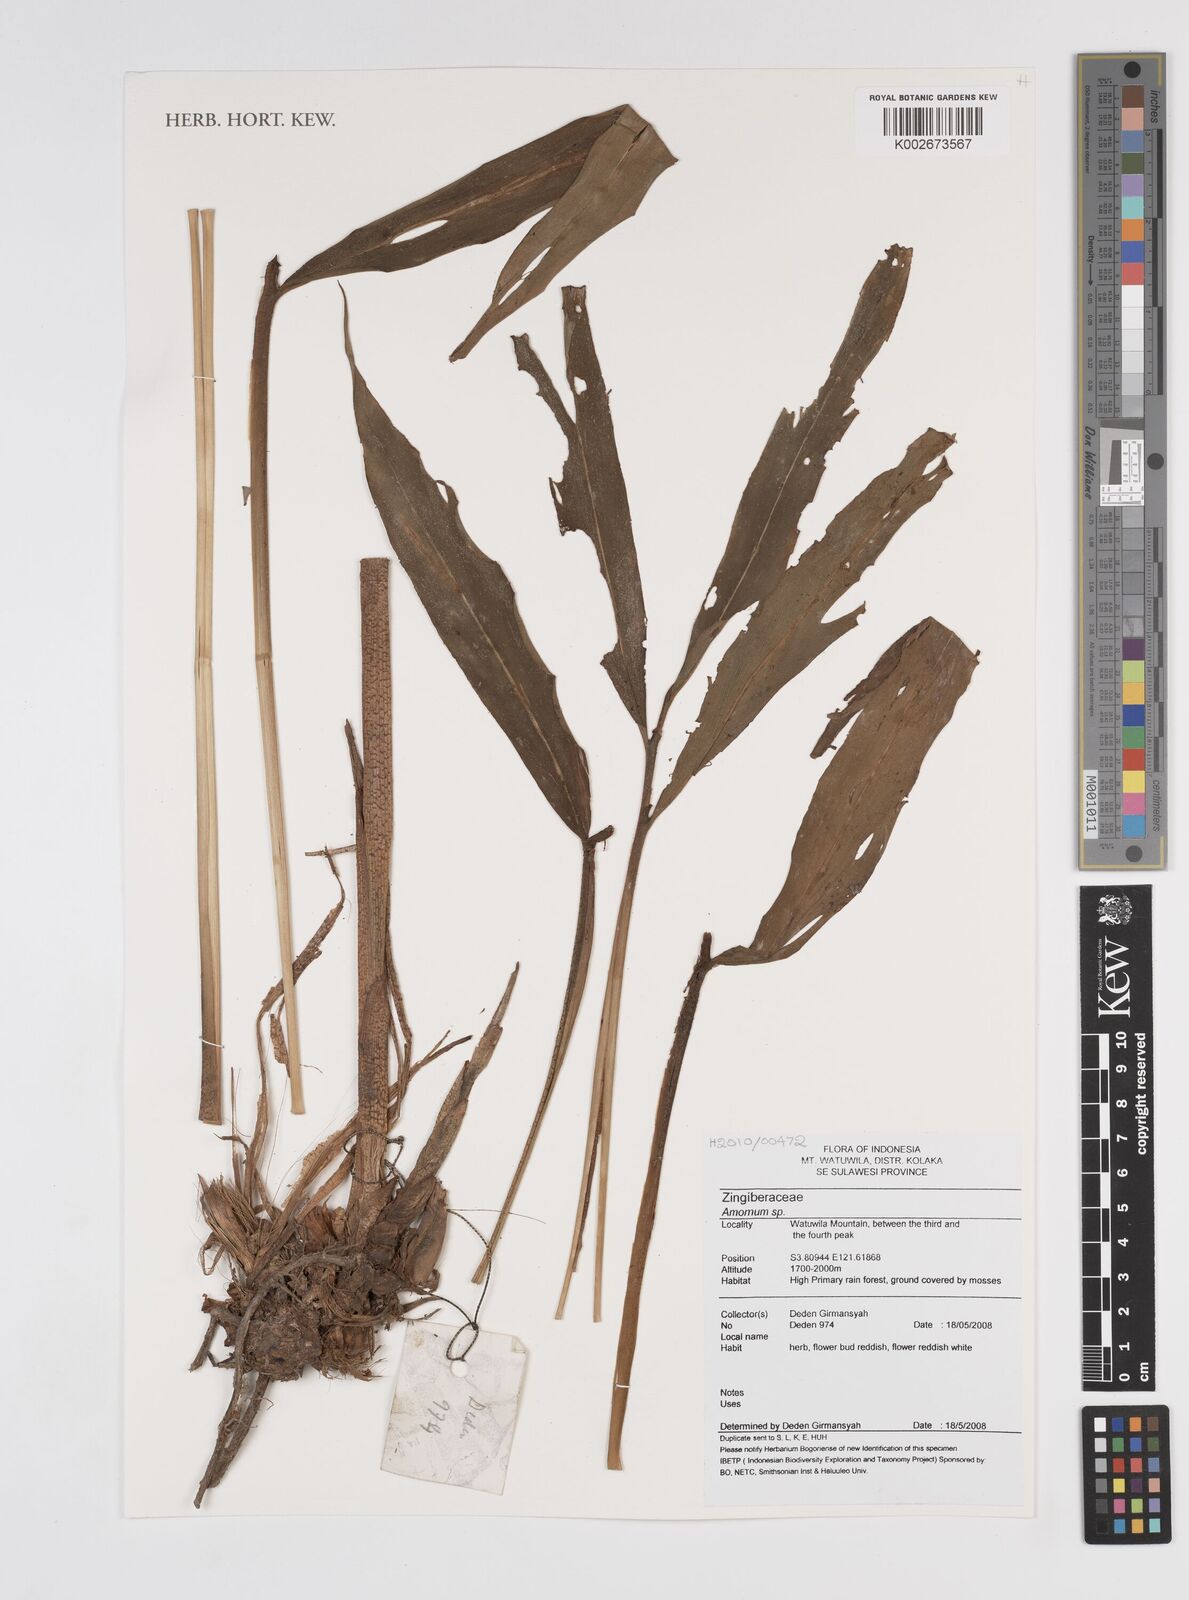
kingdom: Plantae
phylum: Tracheophyta
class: Liliopsida
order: Zingiberales
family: Zingiberaceae
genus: Amomum
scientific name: Amomum
